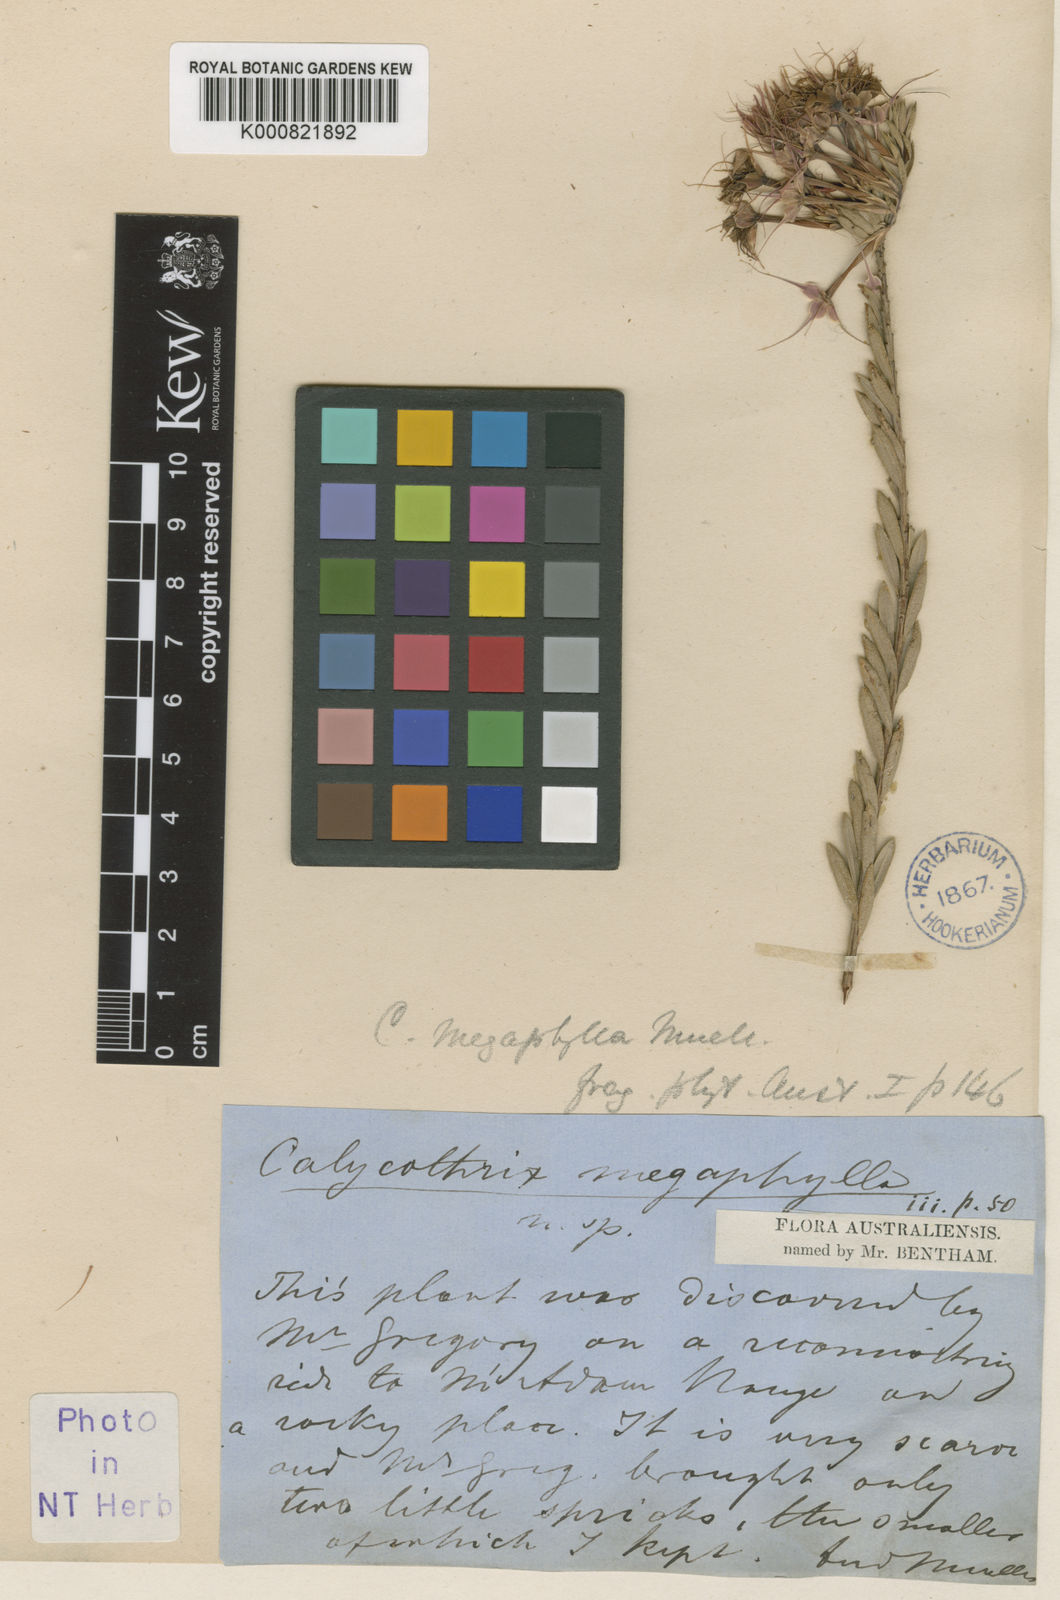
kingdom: Plantae
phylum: Tracheophyta
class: Magnoliopsida
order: Myrtales
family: Myrtaceae
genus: Calytrix
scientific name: Calytrix megaphylla
